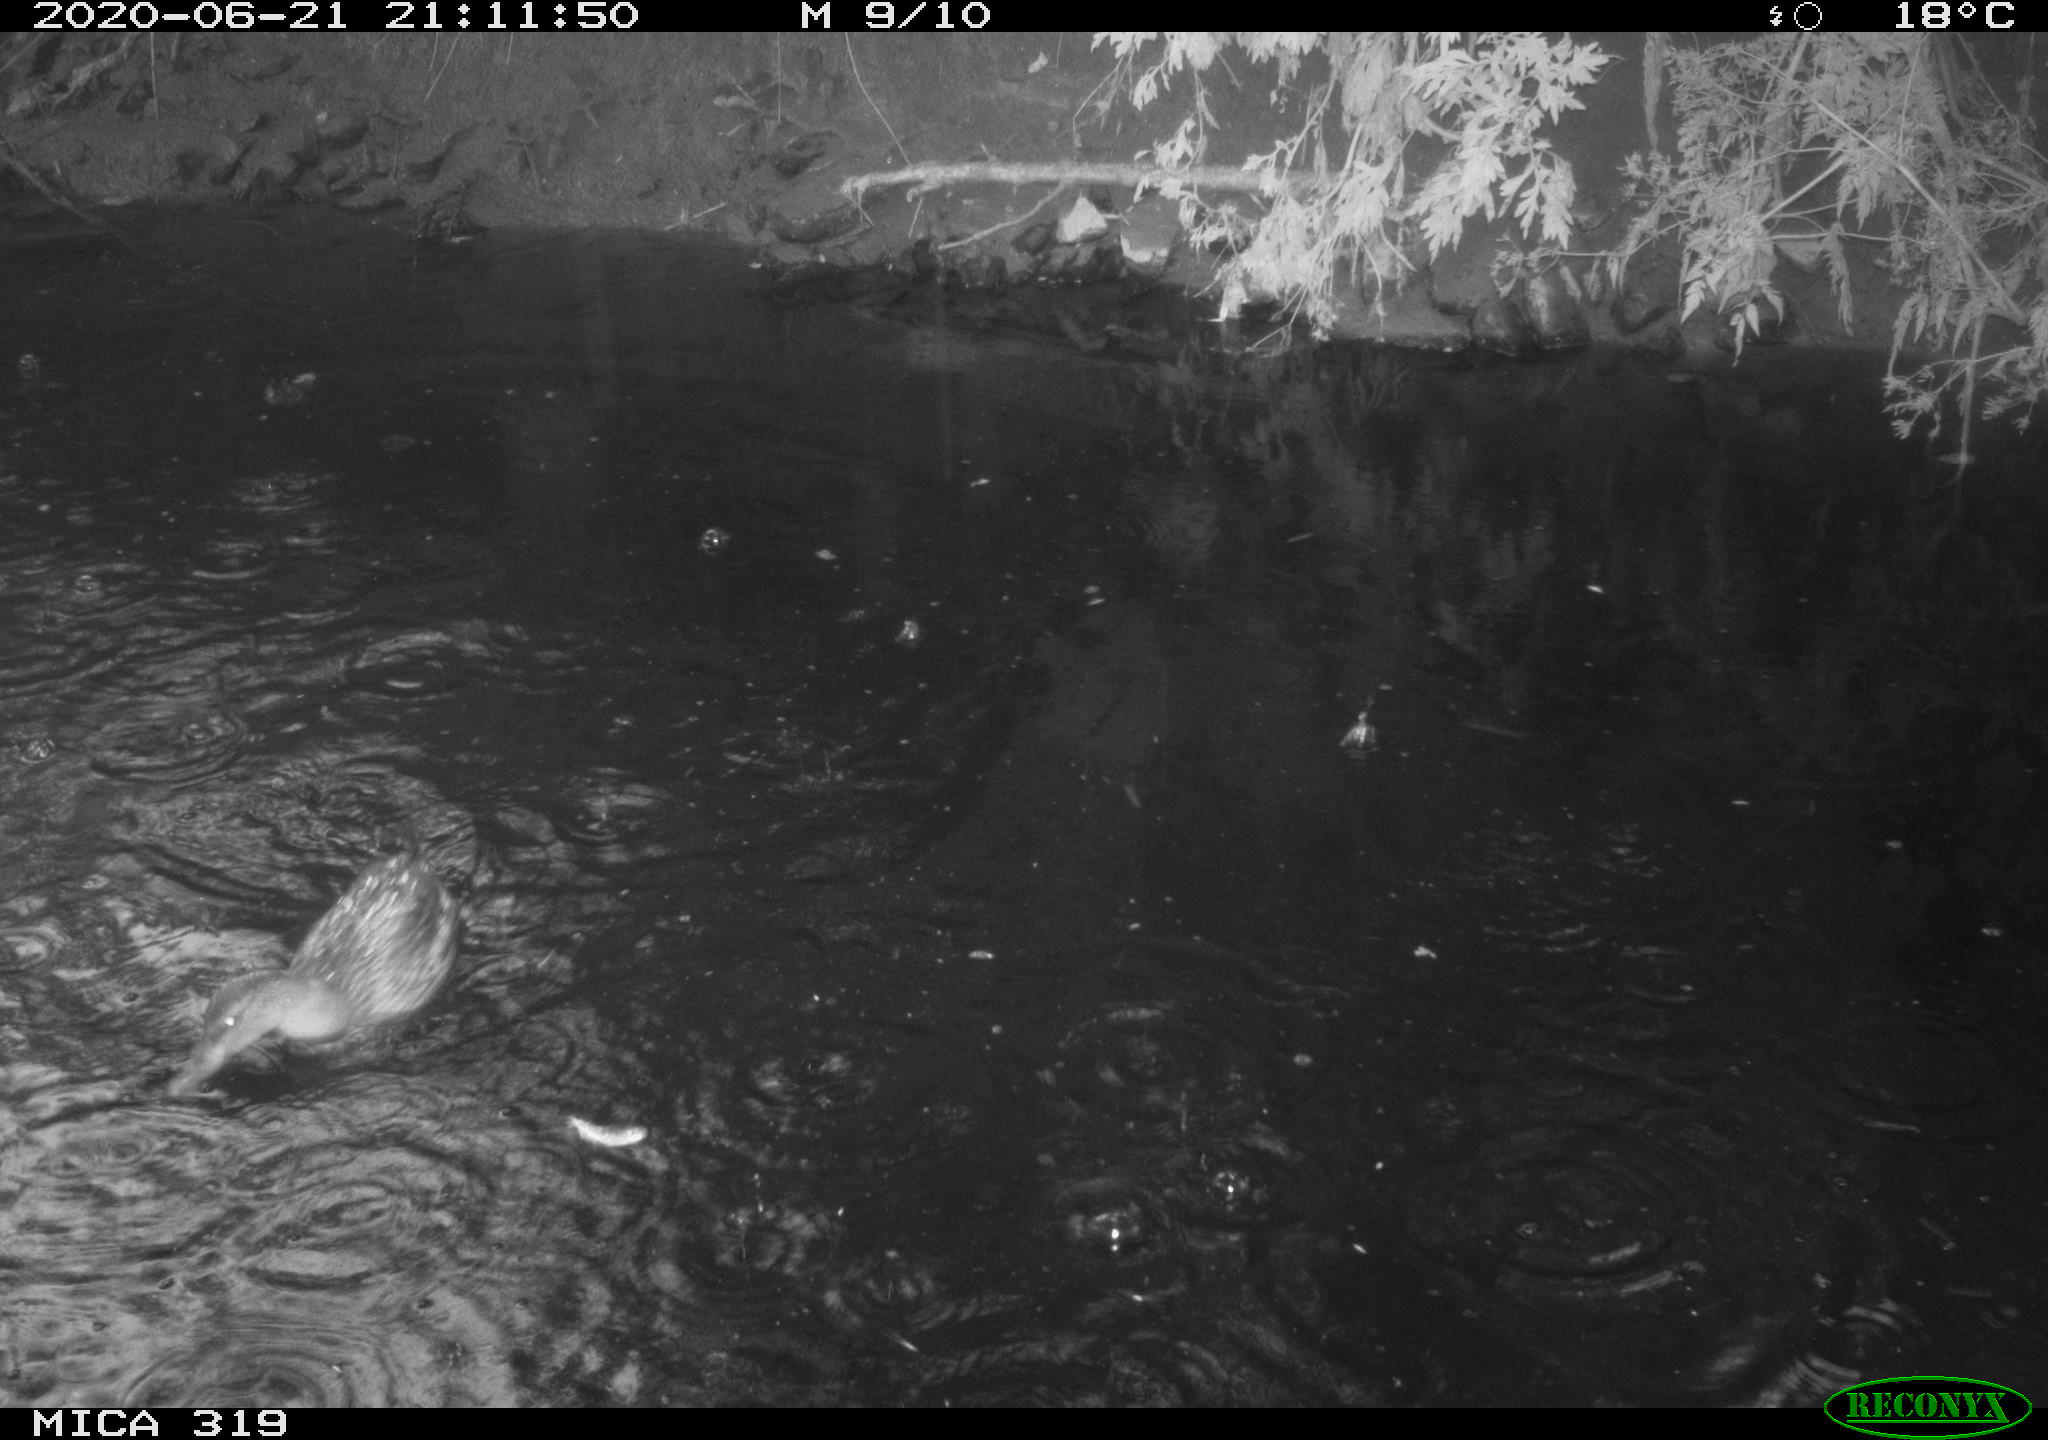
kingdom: Animalia
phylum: Chordata
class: Aves
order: Anseriformes
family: Anatidae
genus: Anas
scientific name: Anas platyrhynchos
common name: Mallard
